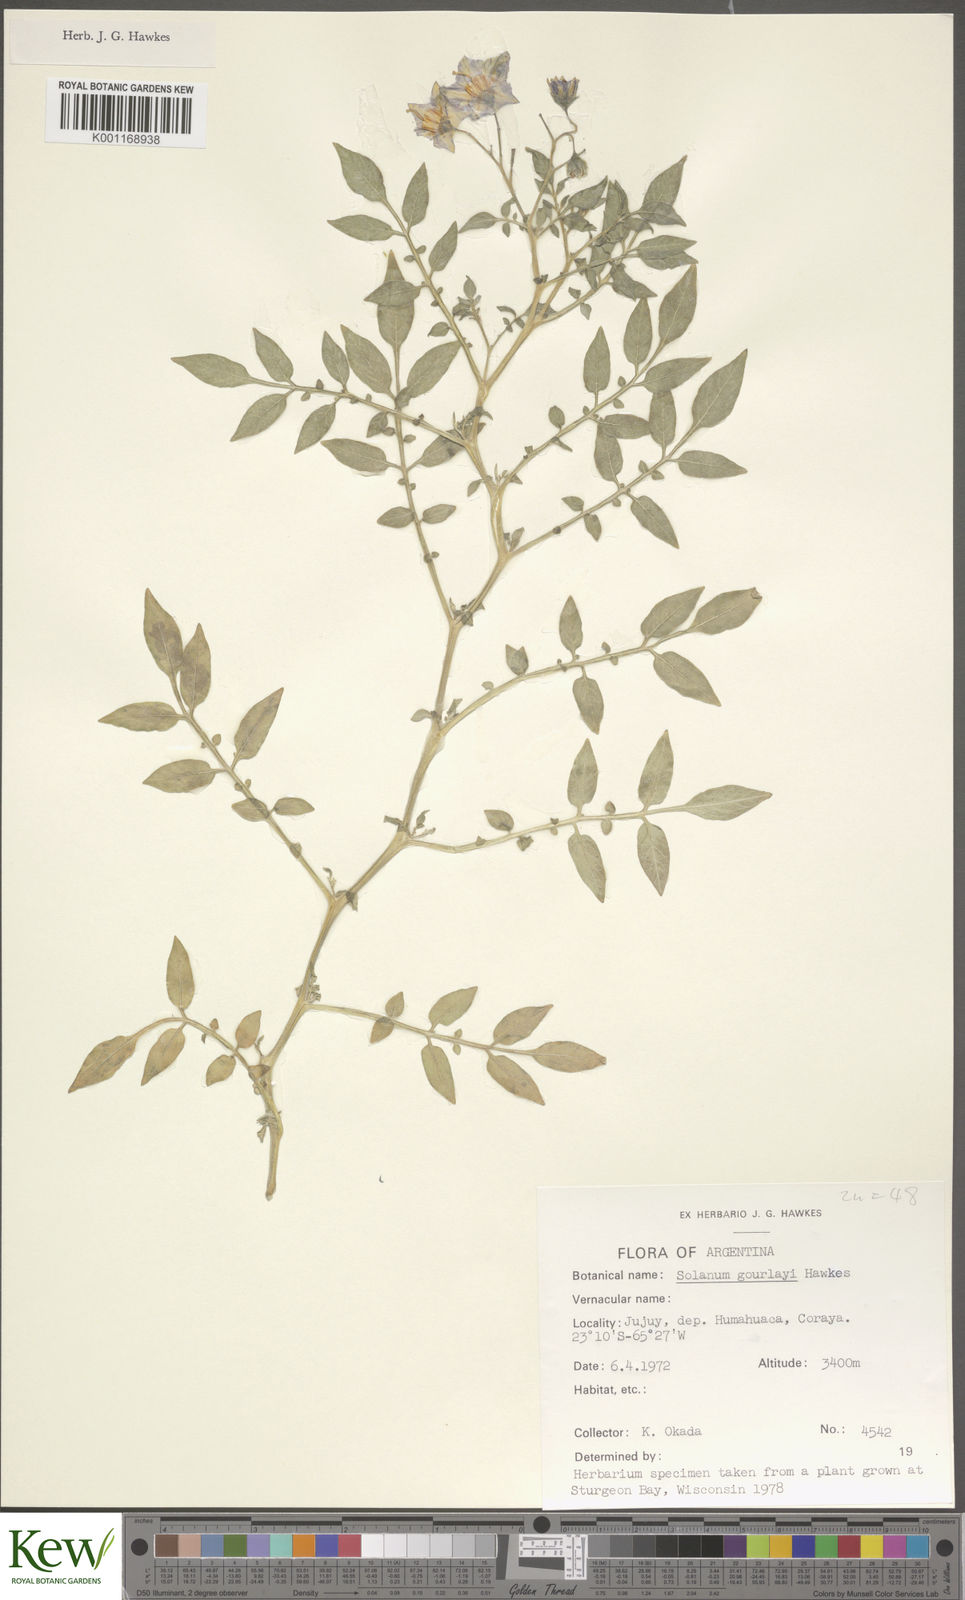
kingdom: Plantae
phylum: Tracheophyta
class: Magnoliopsida
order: Solanales
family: Solanaceae
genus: Solanum
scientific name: Solanum brevicaule
